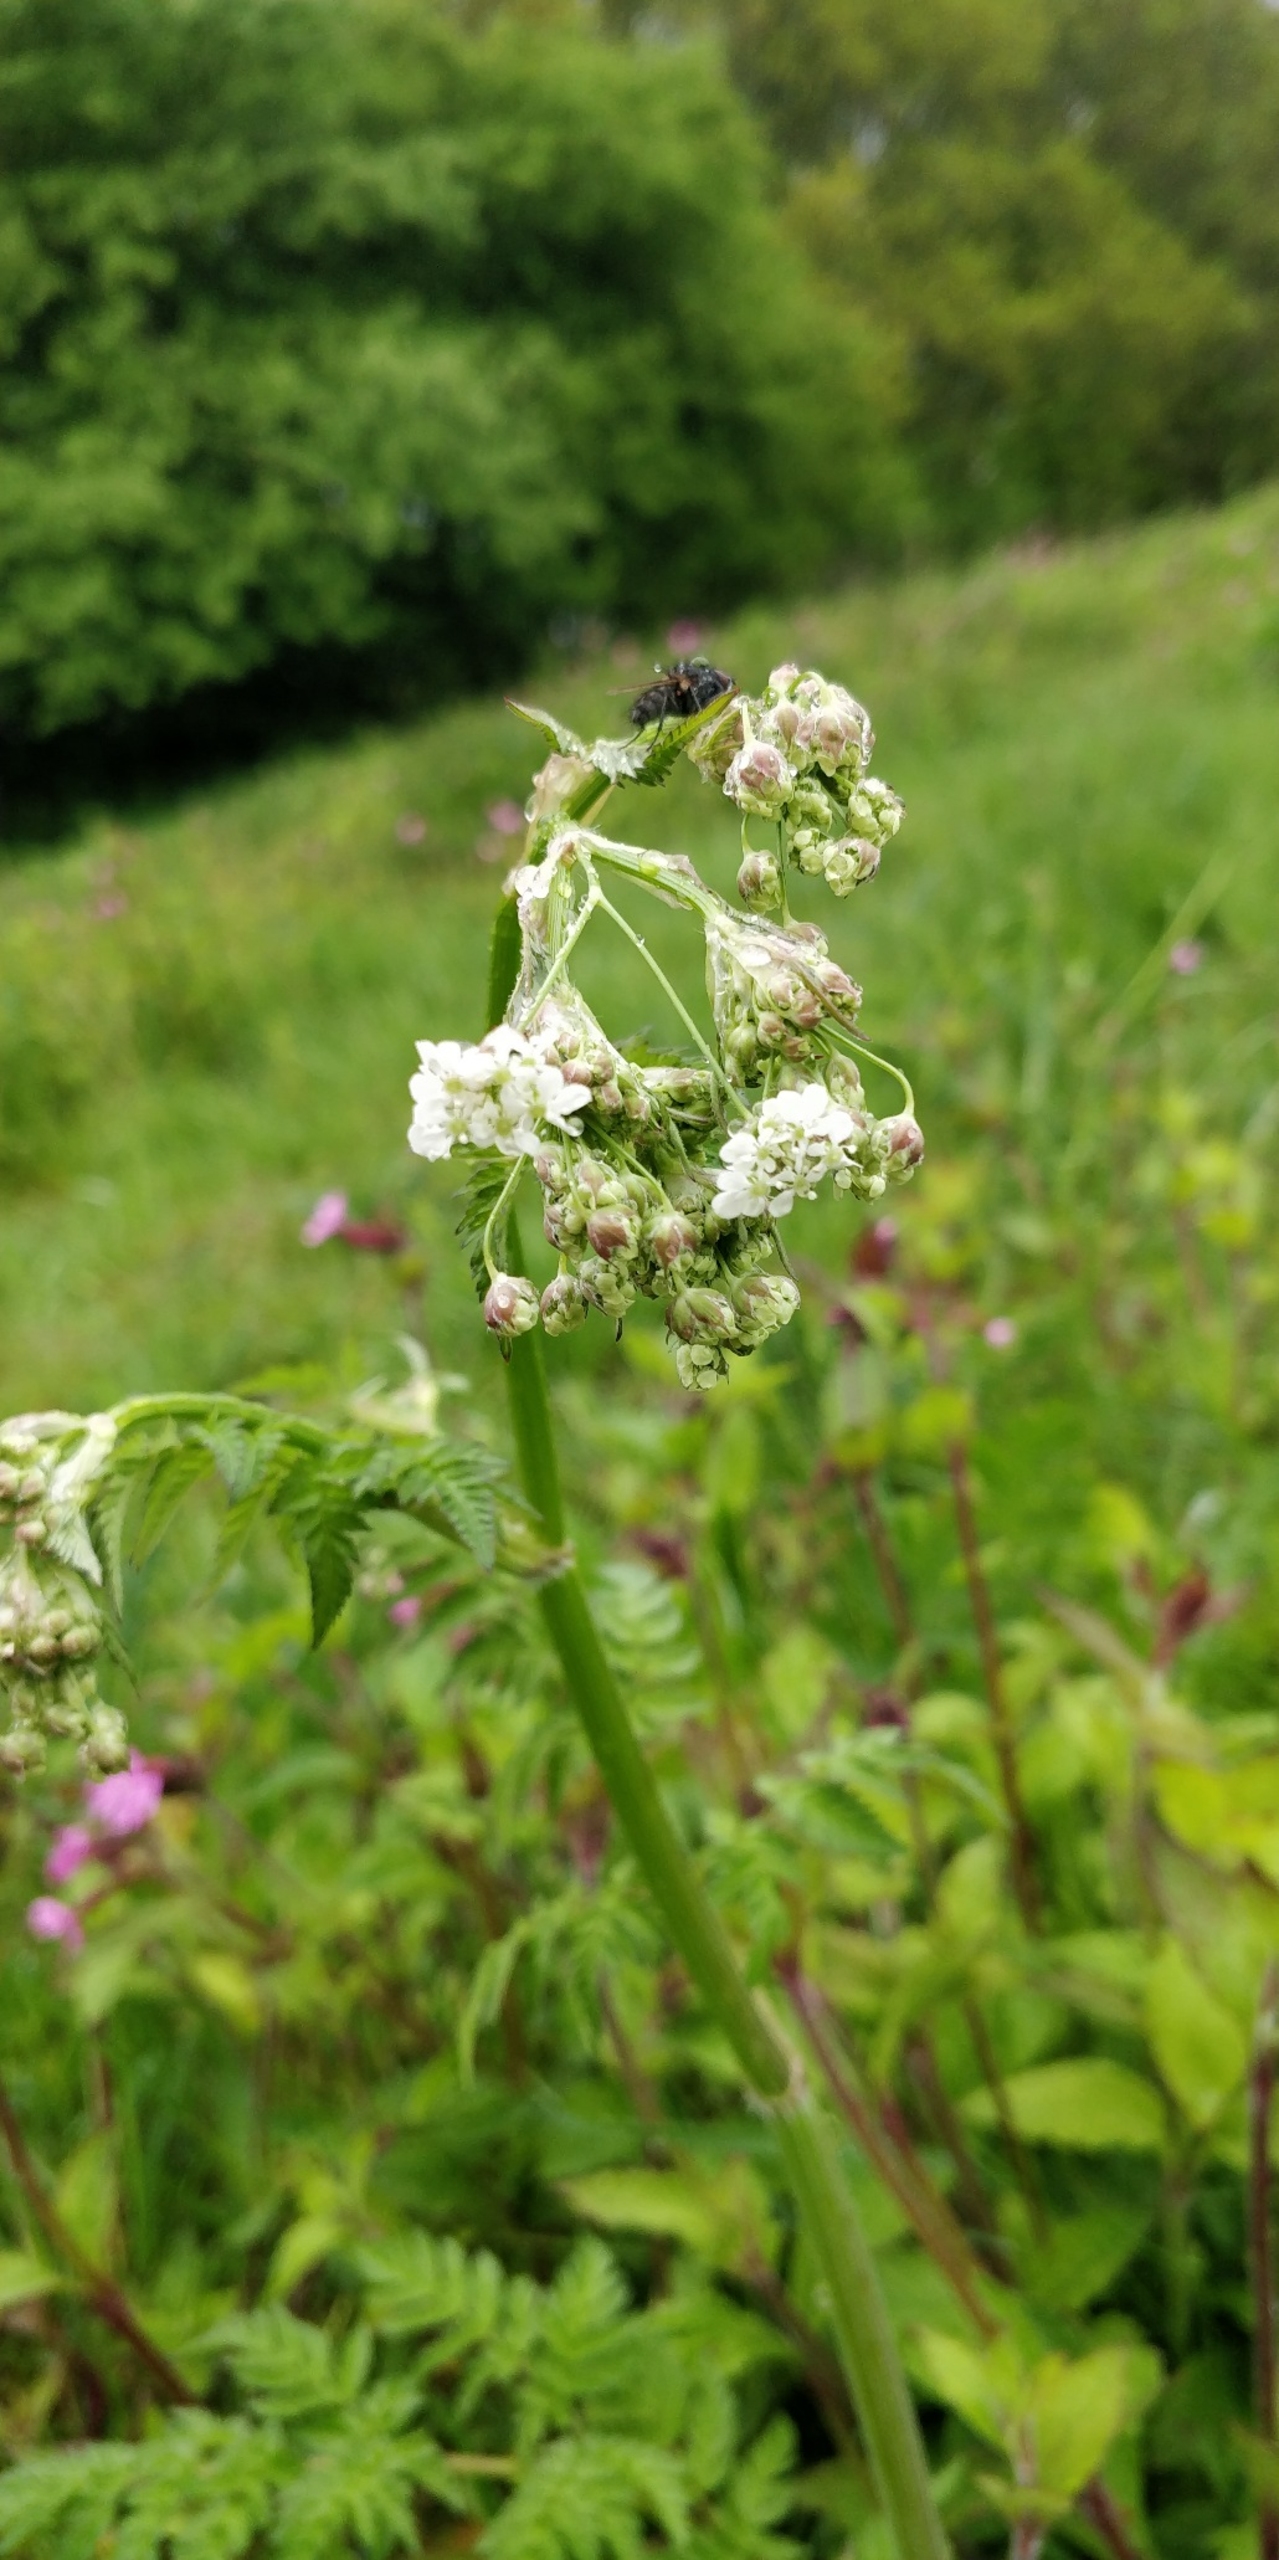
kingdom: Plantae
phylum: Tracheophyta
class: Magnoliopsida
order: Apiales
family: Apiaceae
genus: Anthriscus
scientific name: Anthriscus sylvestris
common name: Vild kørvel
